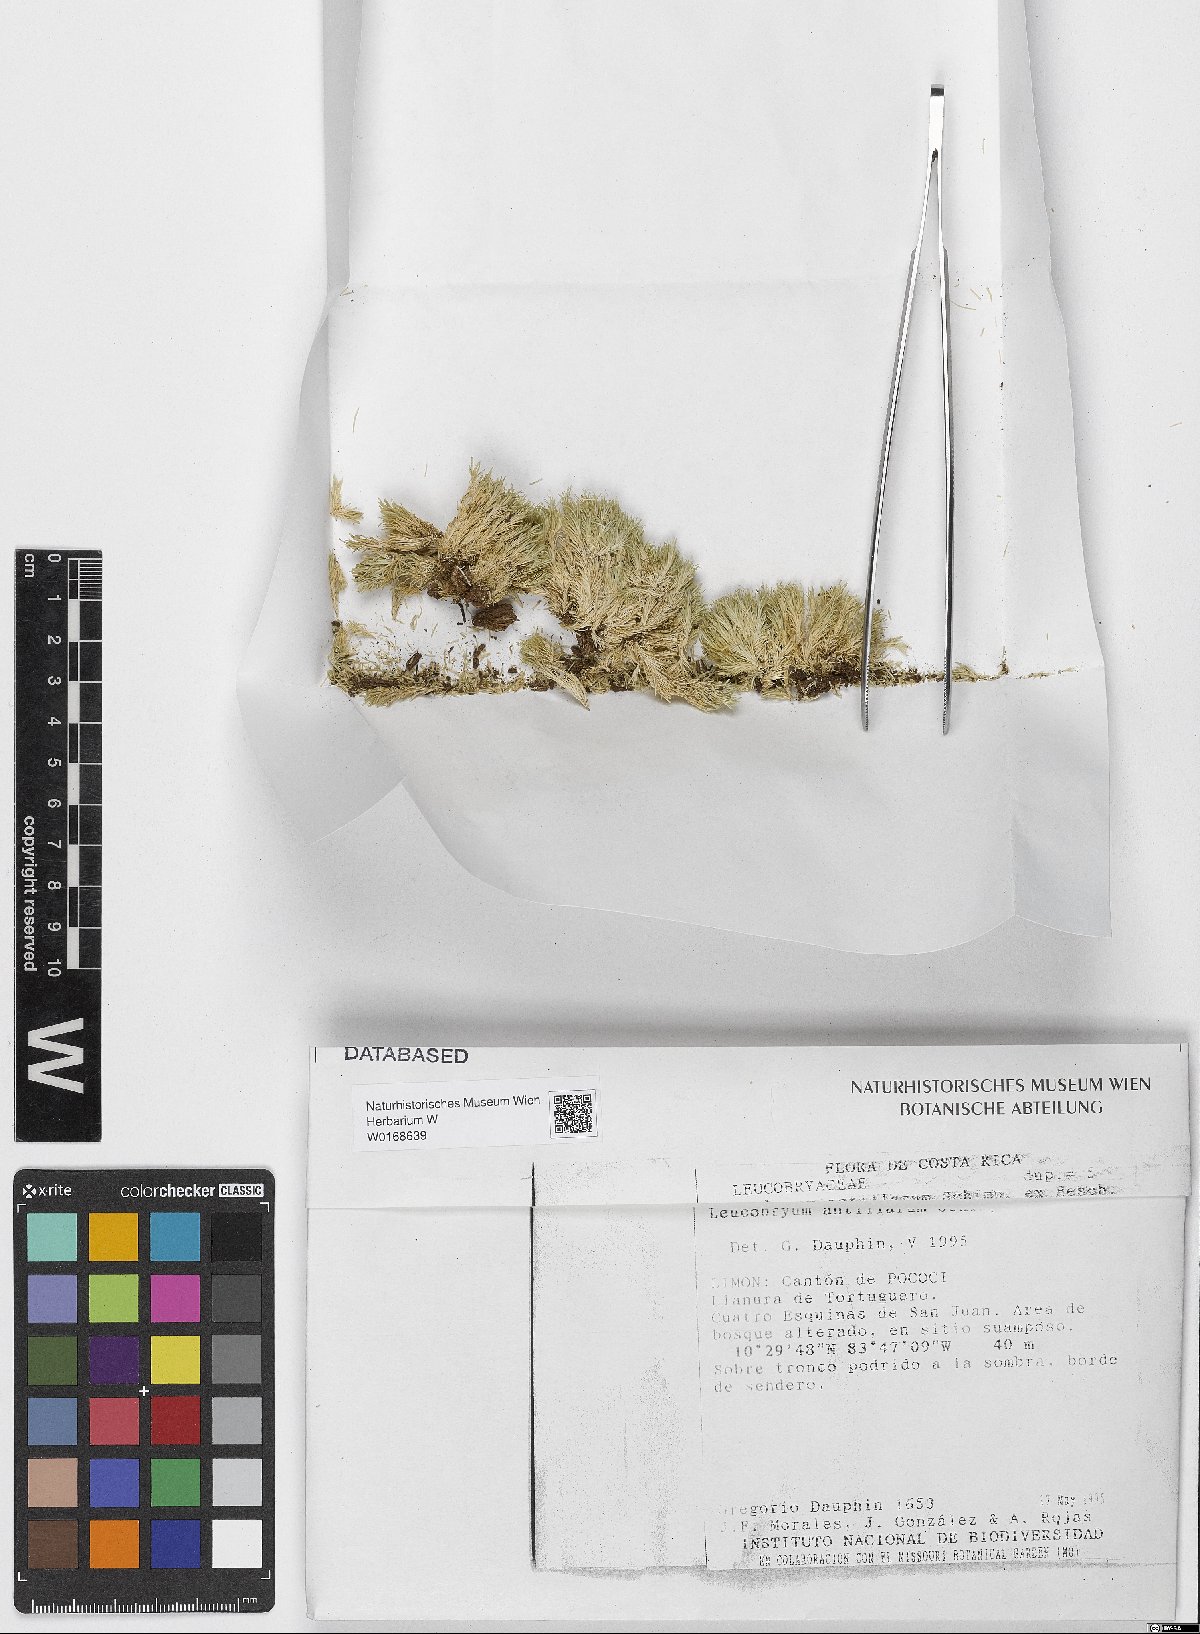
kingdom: Plantae
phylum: Bryophyta
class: Bryopsida
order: Dicranales
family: Leucobryaceae
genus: Leucobryum
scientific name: Leucobryum antillarum
